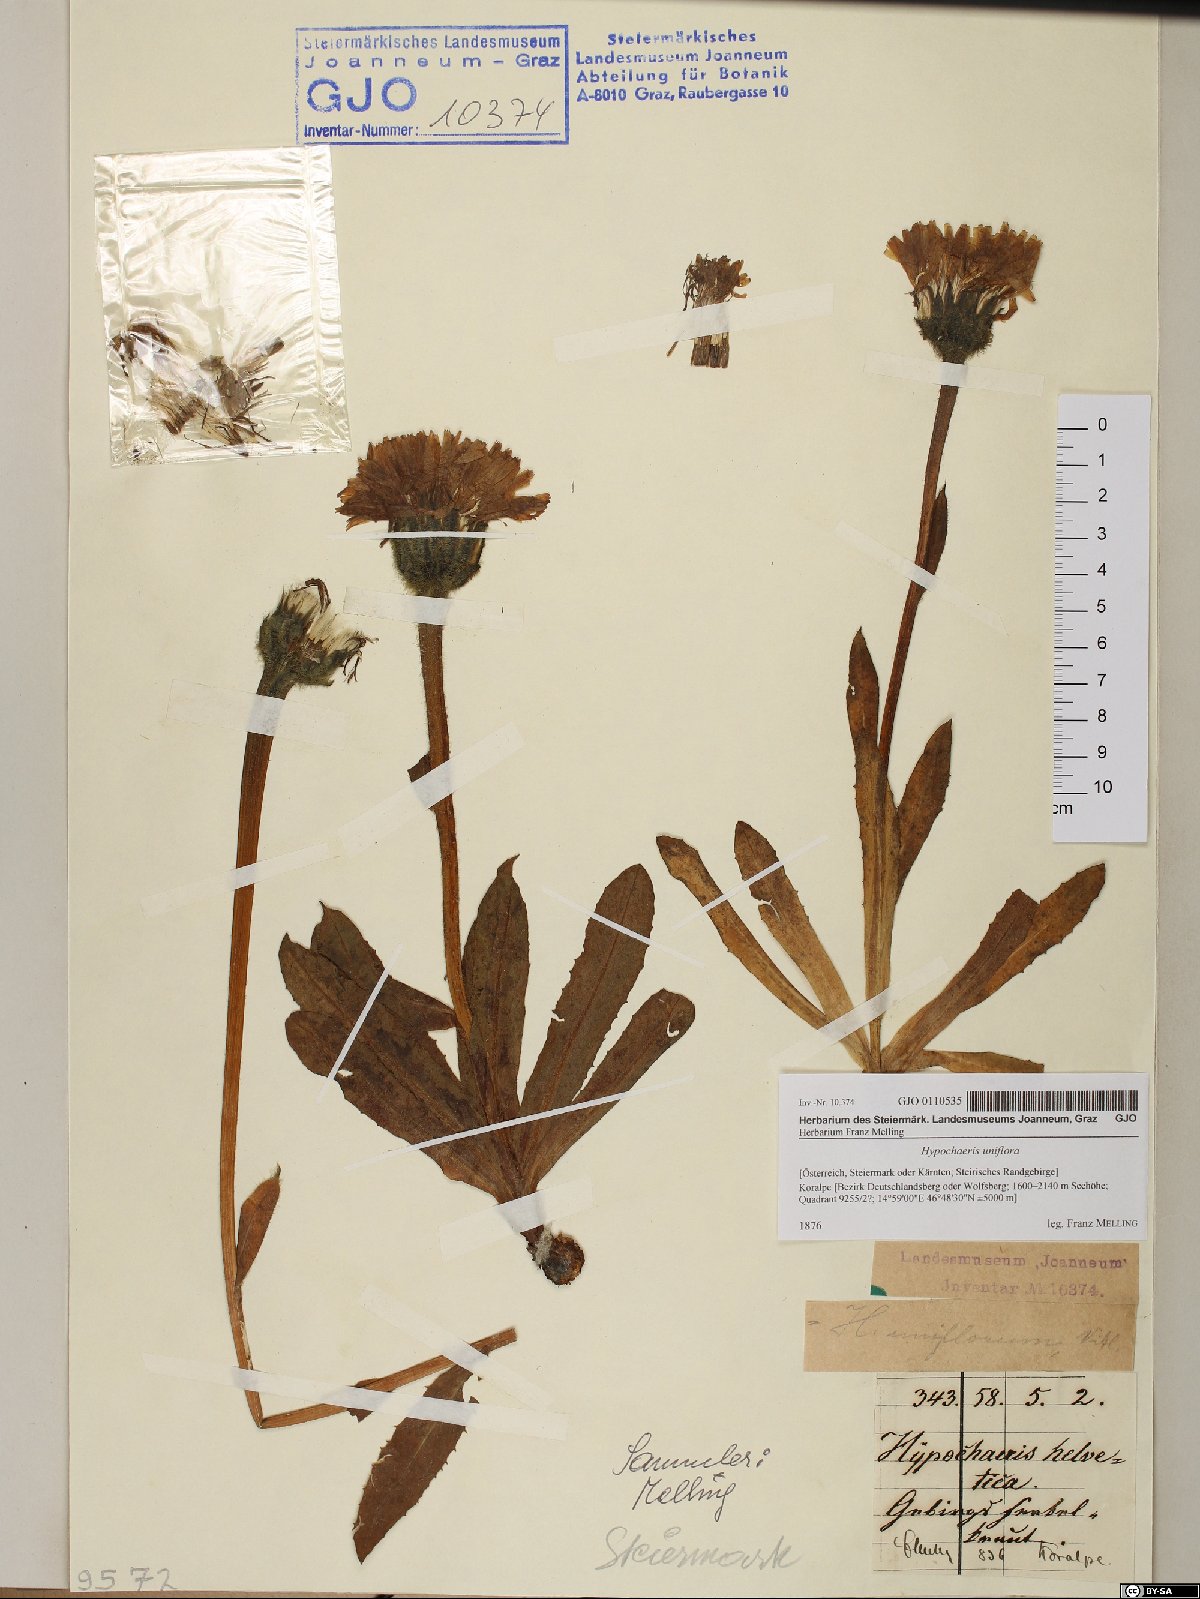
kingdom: Plantae
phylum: Tracheophyta
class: Magnoliopsida
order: Asterales
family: Asteraceae
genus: Trommsdorffia
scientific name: Trommsdorffia uniflora
